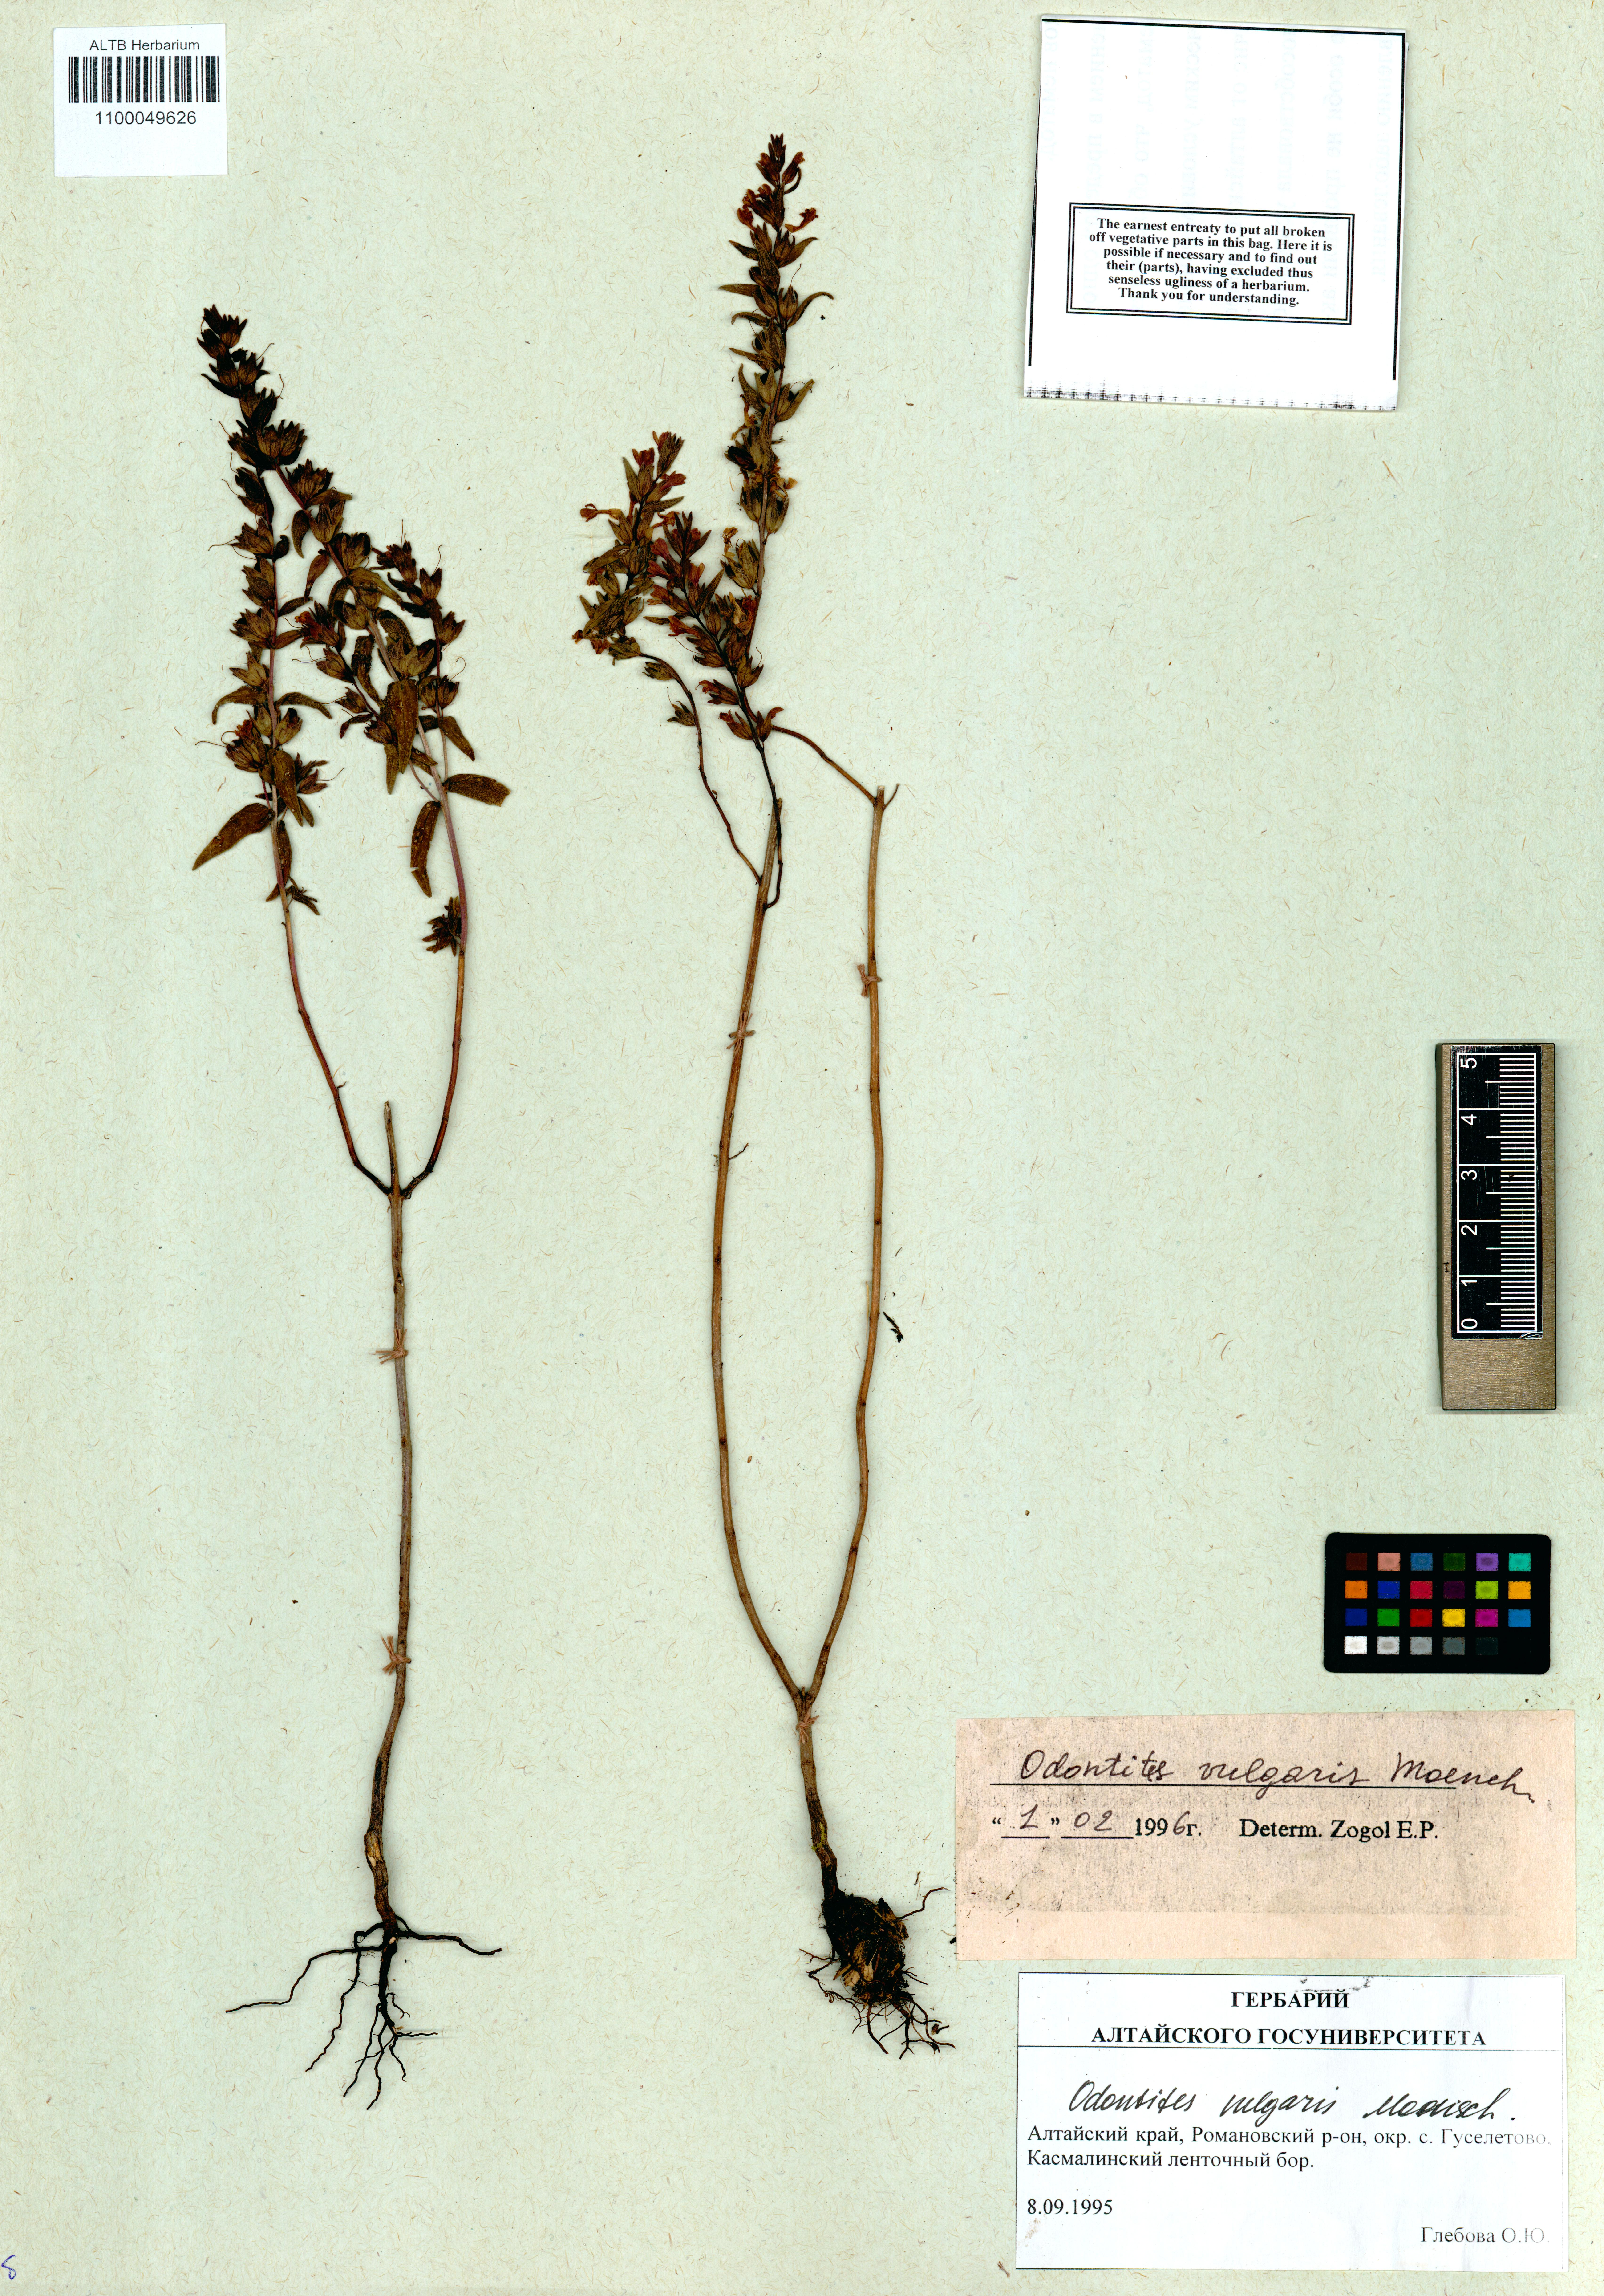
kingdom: Plantae
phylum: Tracheophyta
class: Magnoliopsida
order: Lamiales
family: Orobanchaceae
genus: Odontites
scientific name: Odontites vulgaris
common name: Broomrape
